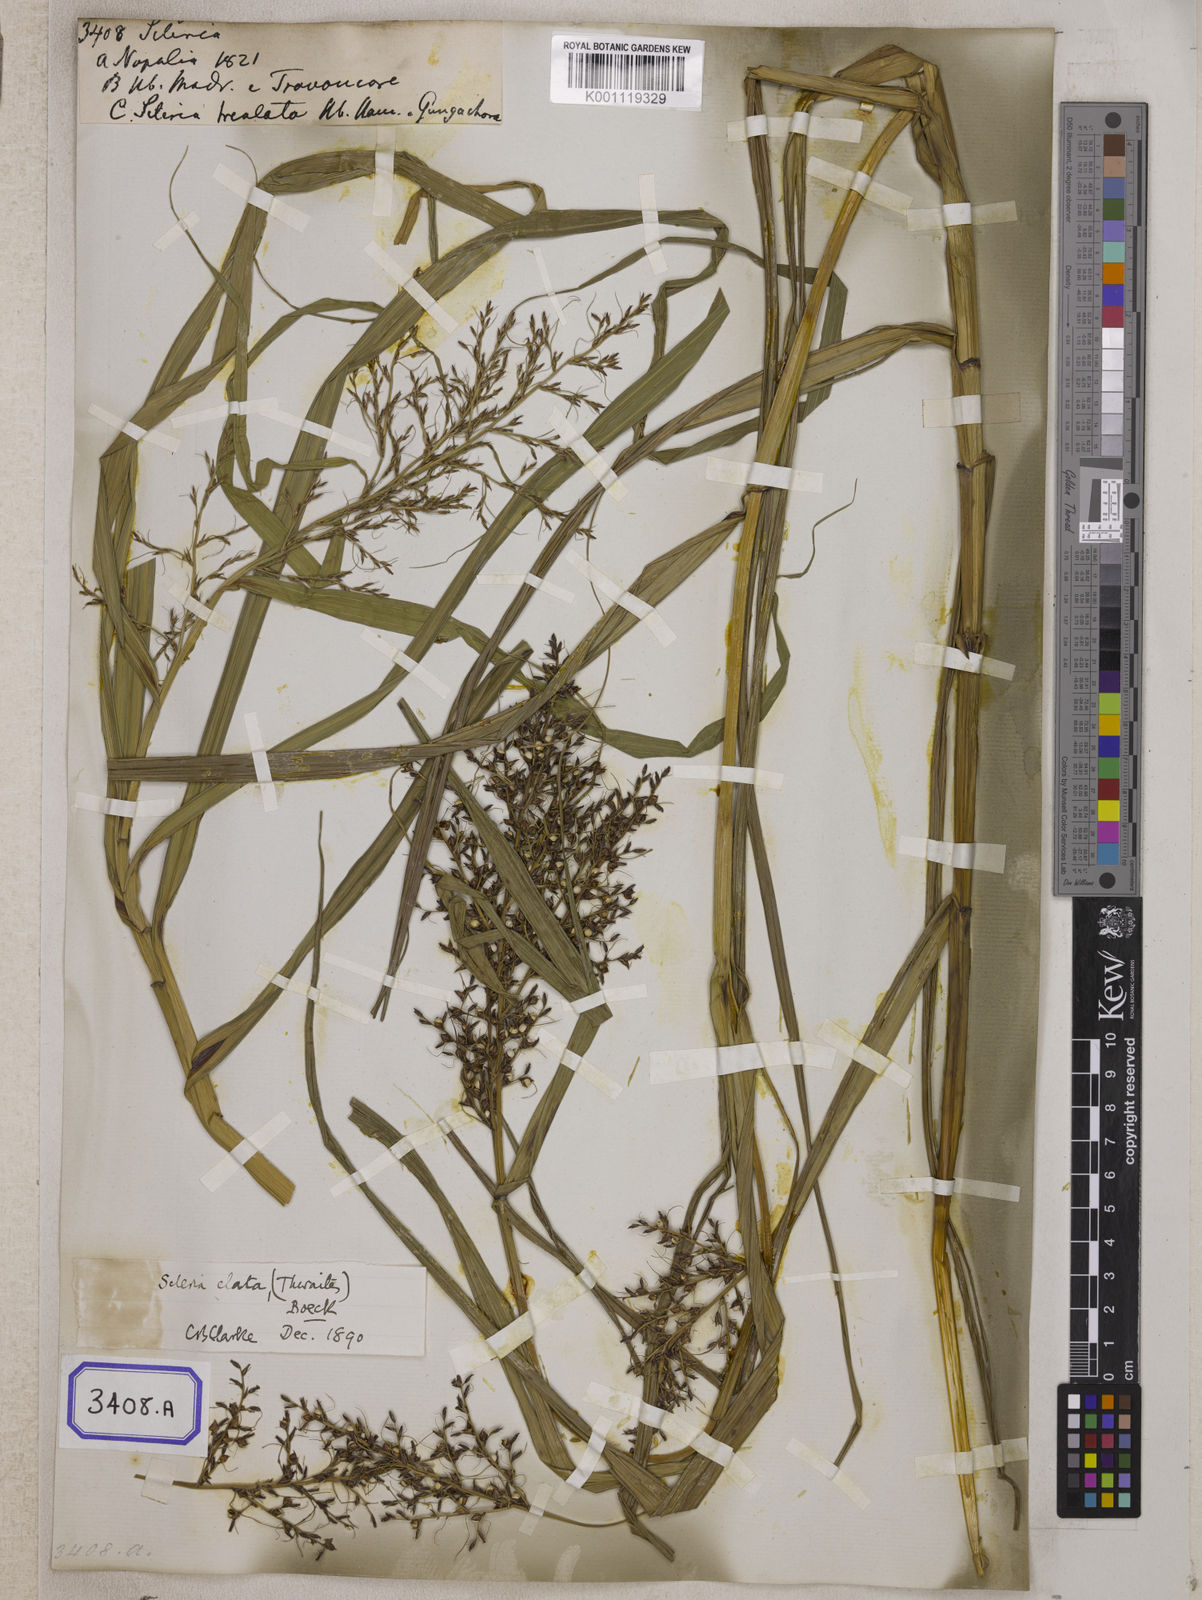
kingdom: Plantae
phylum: Tracheophyta
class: Liliopsida
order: Poales
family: Cyperaceae
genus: Scleria
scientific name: Scleria
